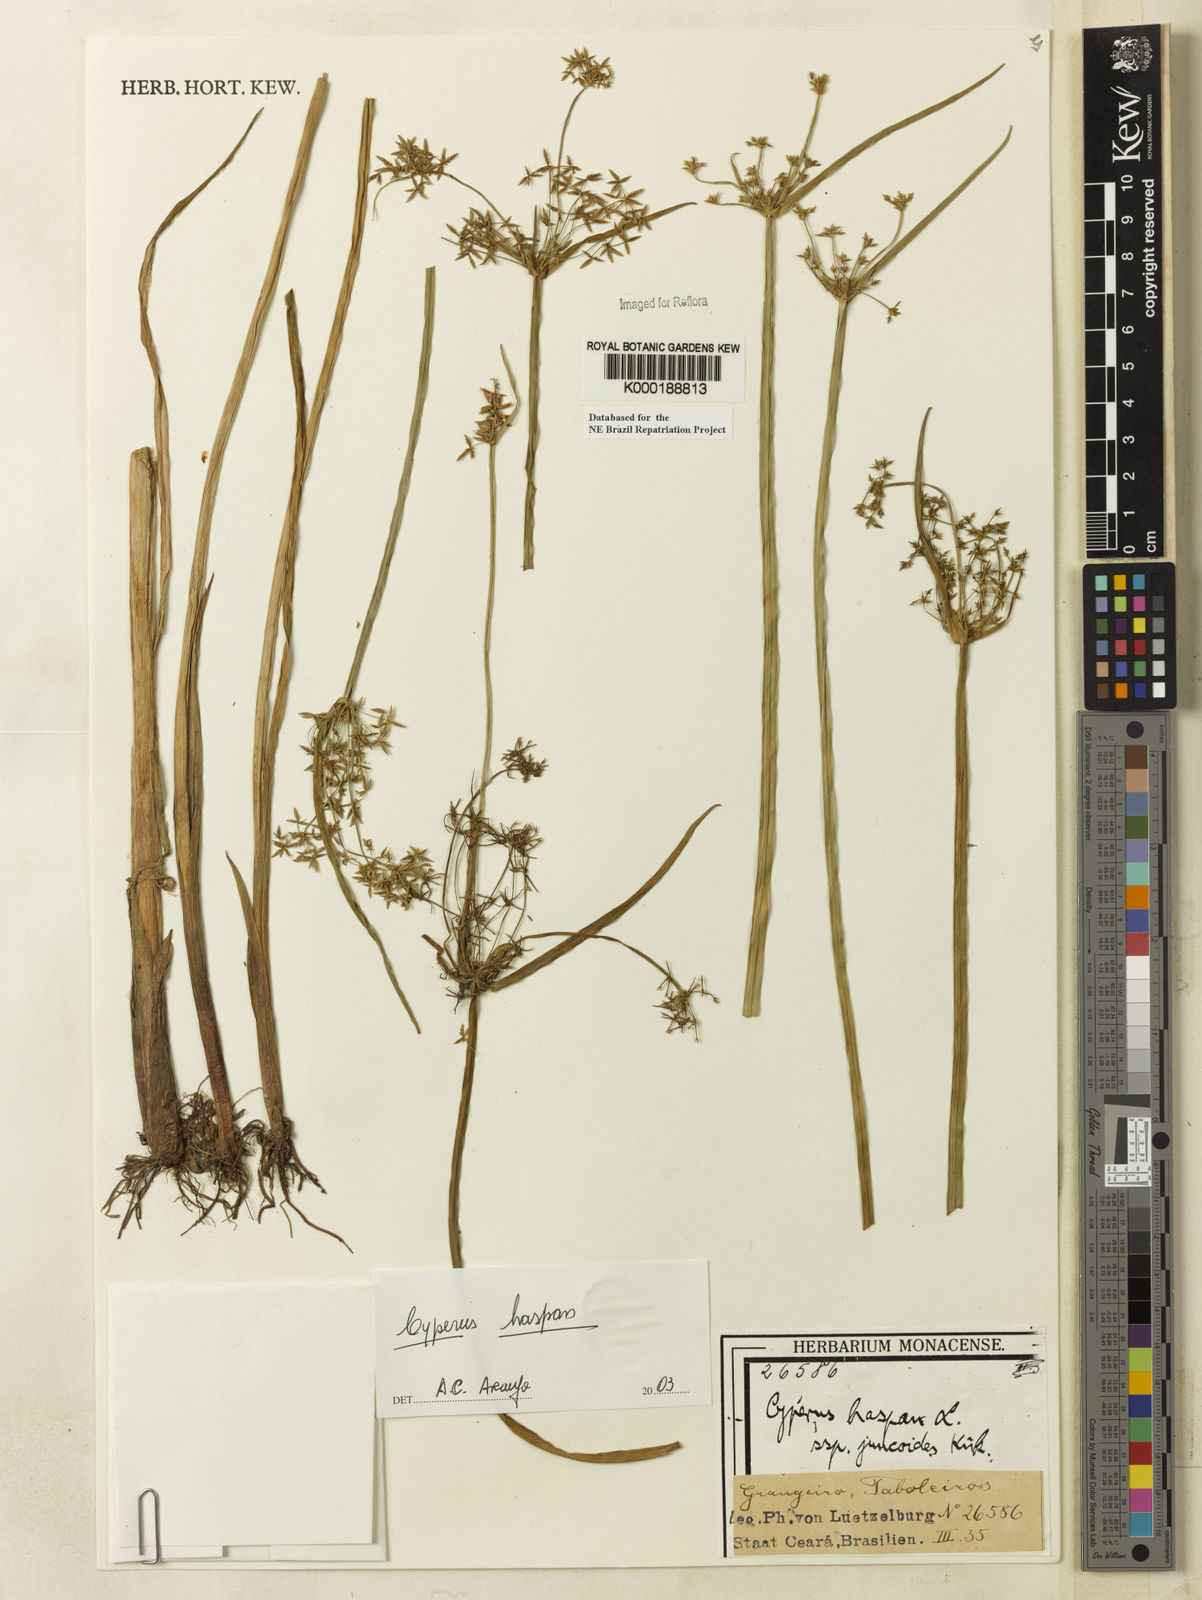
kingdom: Plantae
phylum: Tracheophyta
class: Liliopsida
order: Poales
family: Cyperaceae
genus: Cyperus
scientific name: Cyperus haspan
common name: Haspan flatsedge
